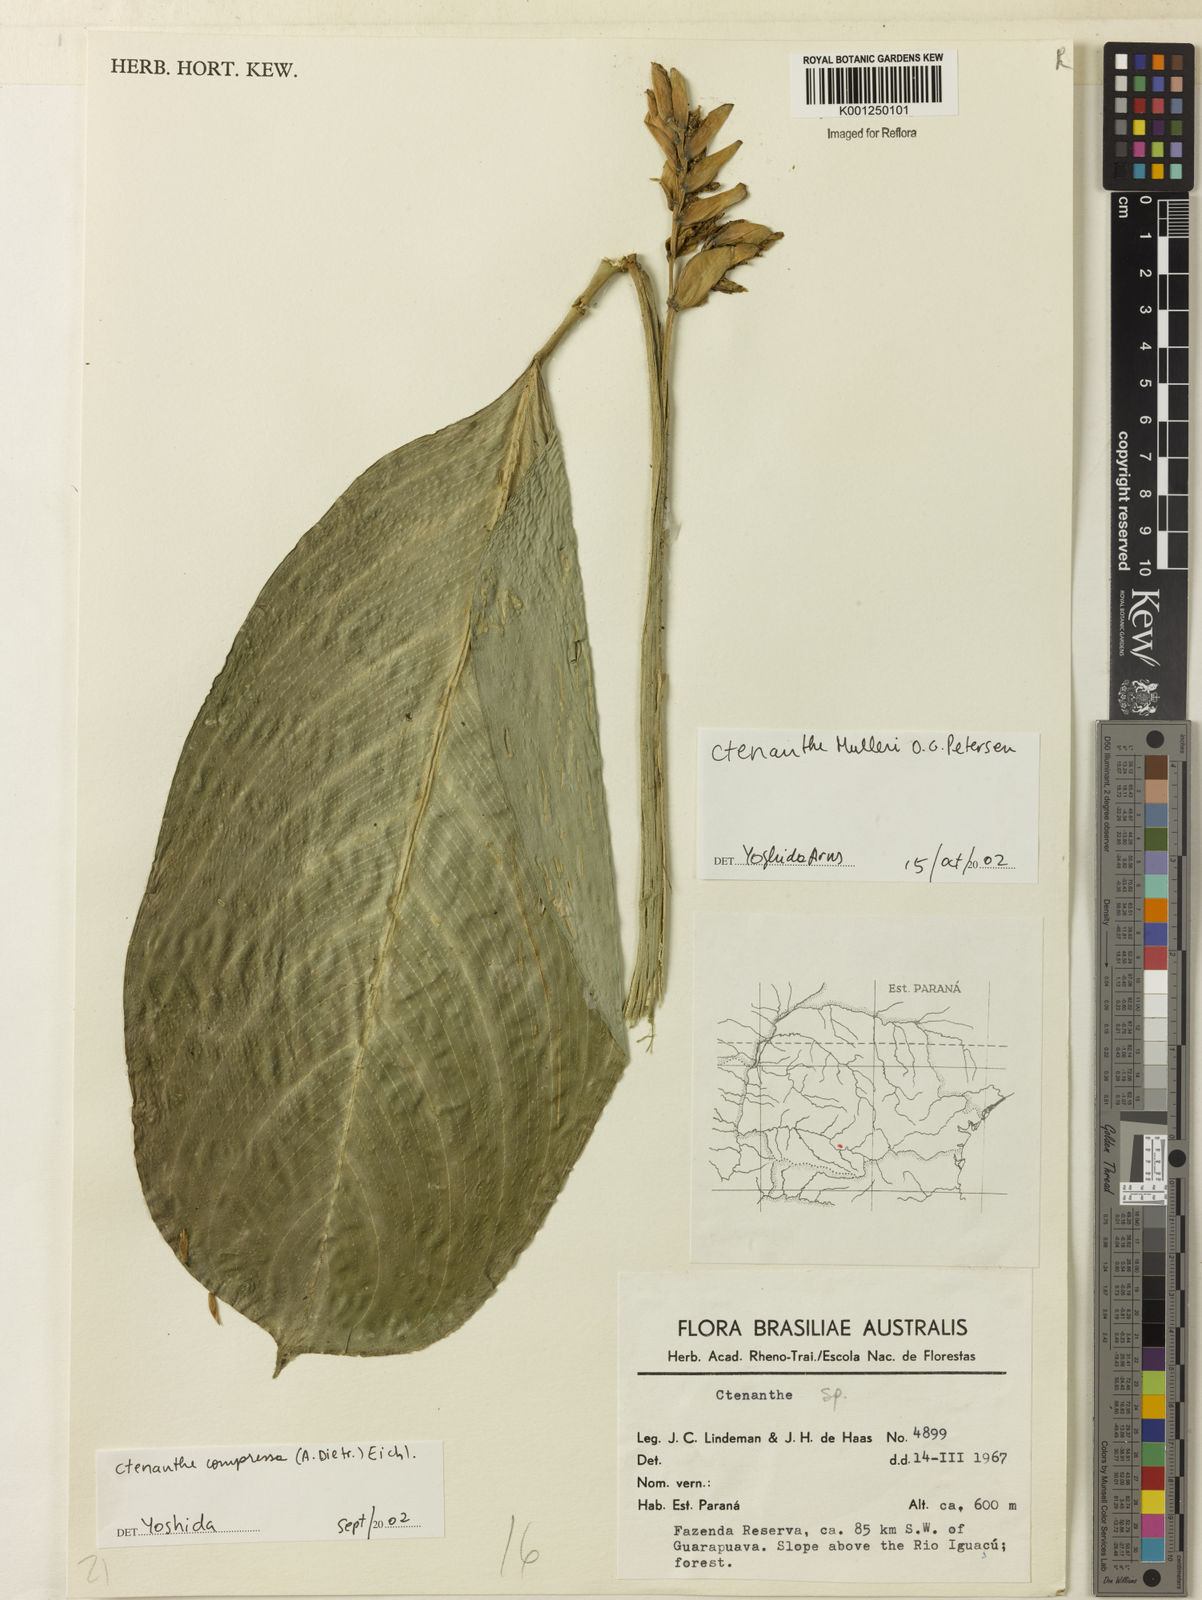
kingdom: Plantae
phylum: Tracheophyta
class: Liliopsida
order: Zingiberales
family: Marantaceae
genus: Ctenanthe
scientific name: Ctenanthe
